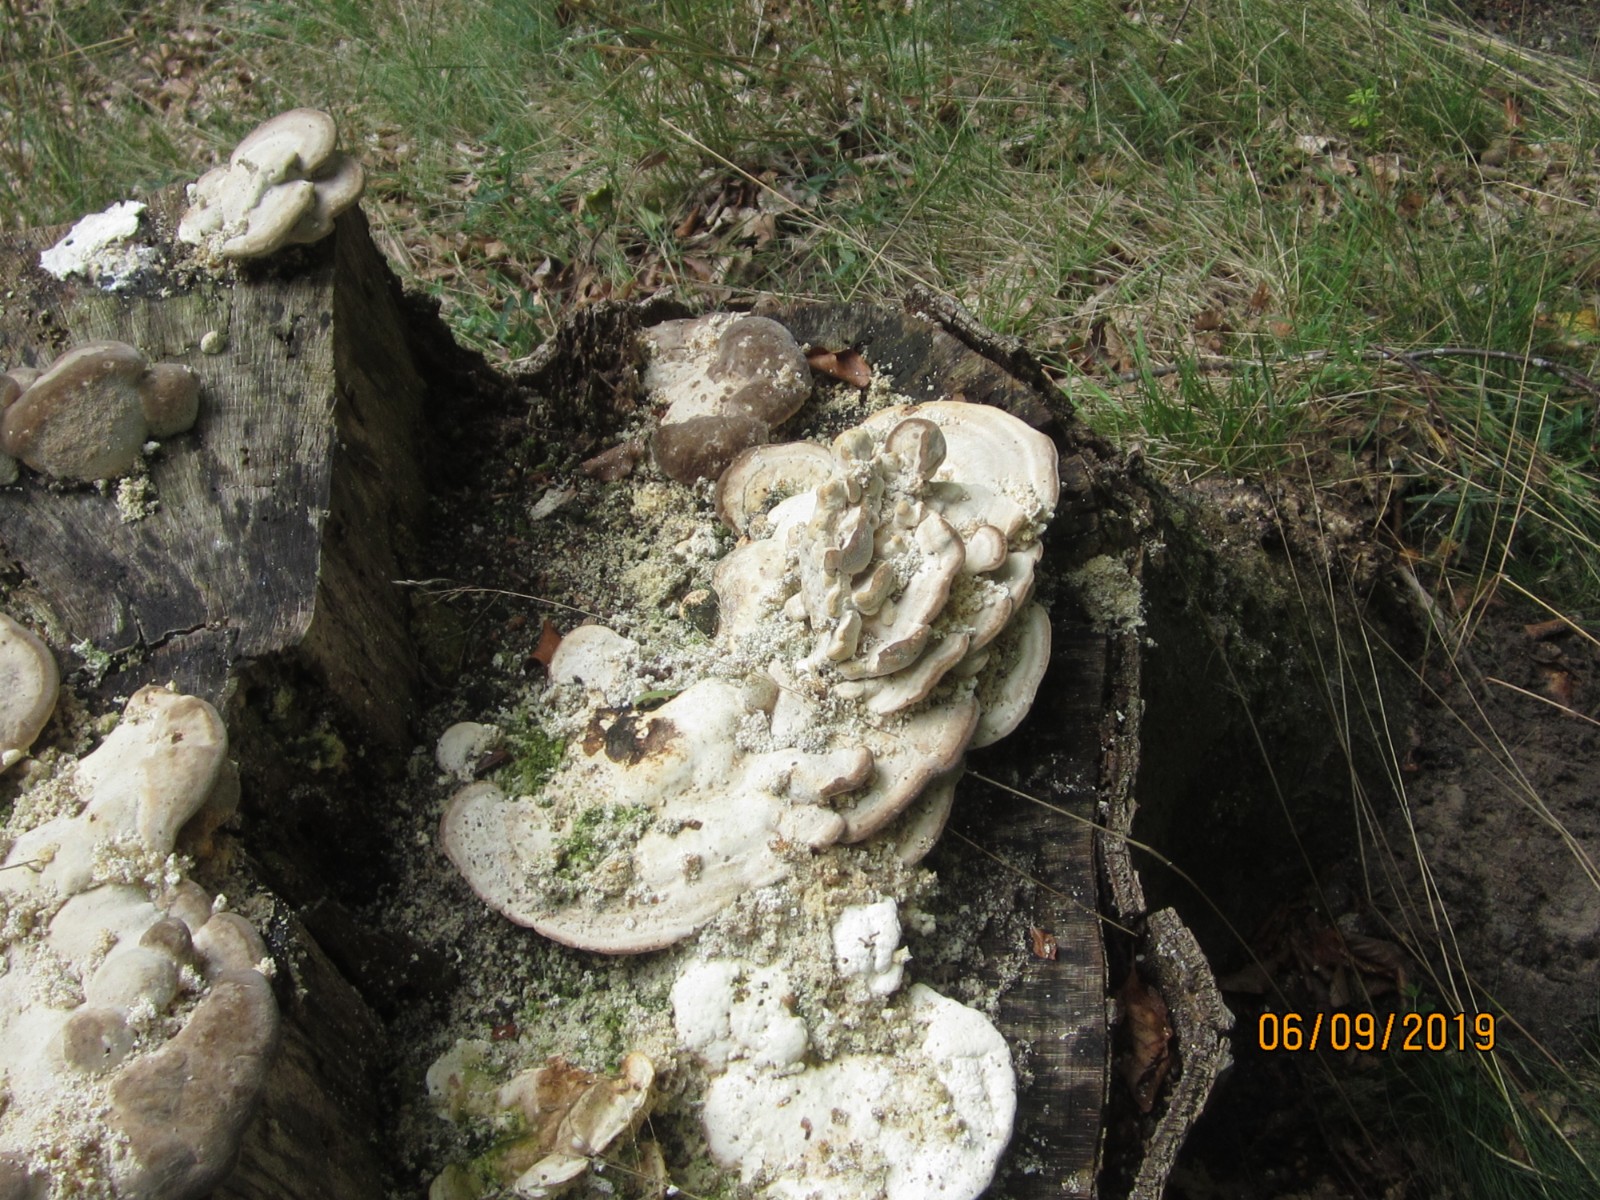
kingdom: Fungi
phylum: Basidiomycota
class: Agaricomycetes
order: Polyporales
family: Polyporaceae
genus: Trametes
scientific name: Trametes gibbosa
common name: puklet læderporesvamp
